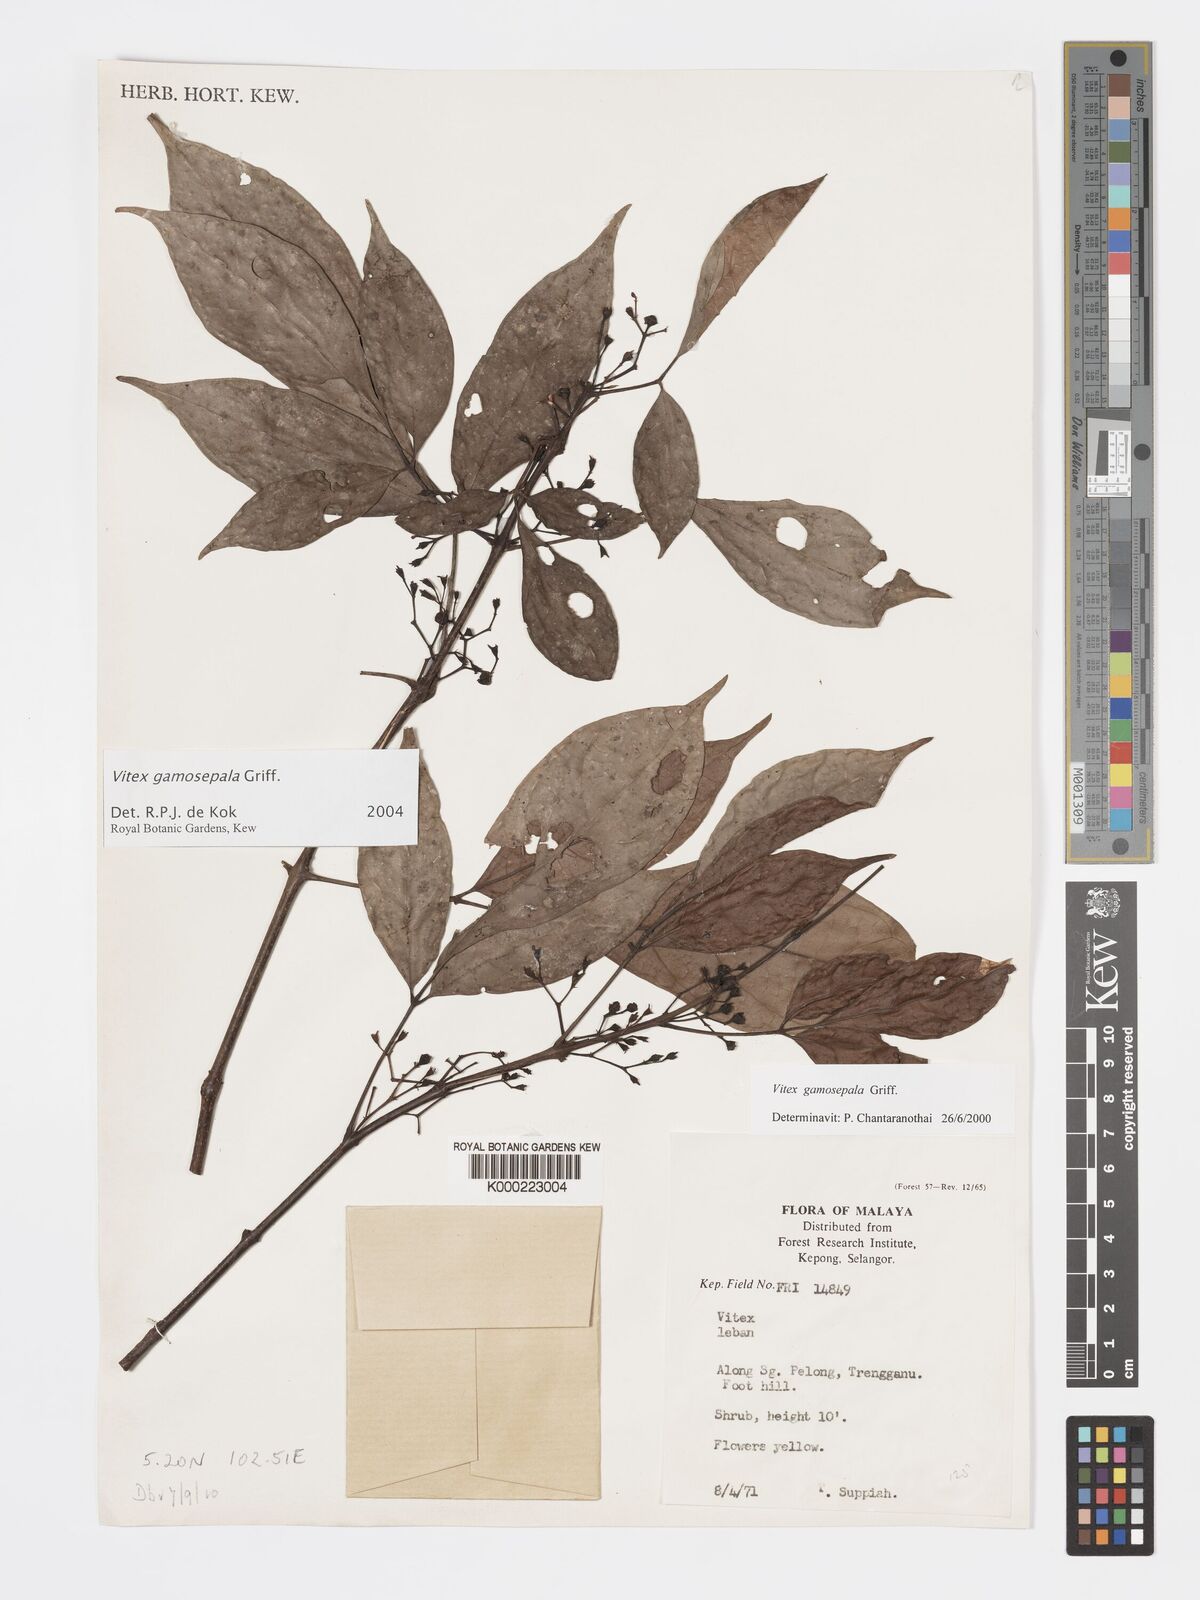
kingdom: Plantae
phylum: Tracheophyta
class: Magnoliopsida
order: Lamiales
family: Lamiaceae
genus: Vitex
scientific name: Vitex gamosepala
